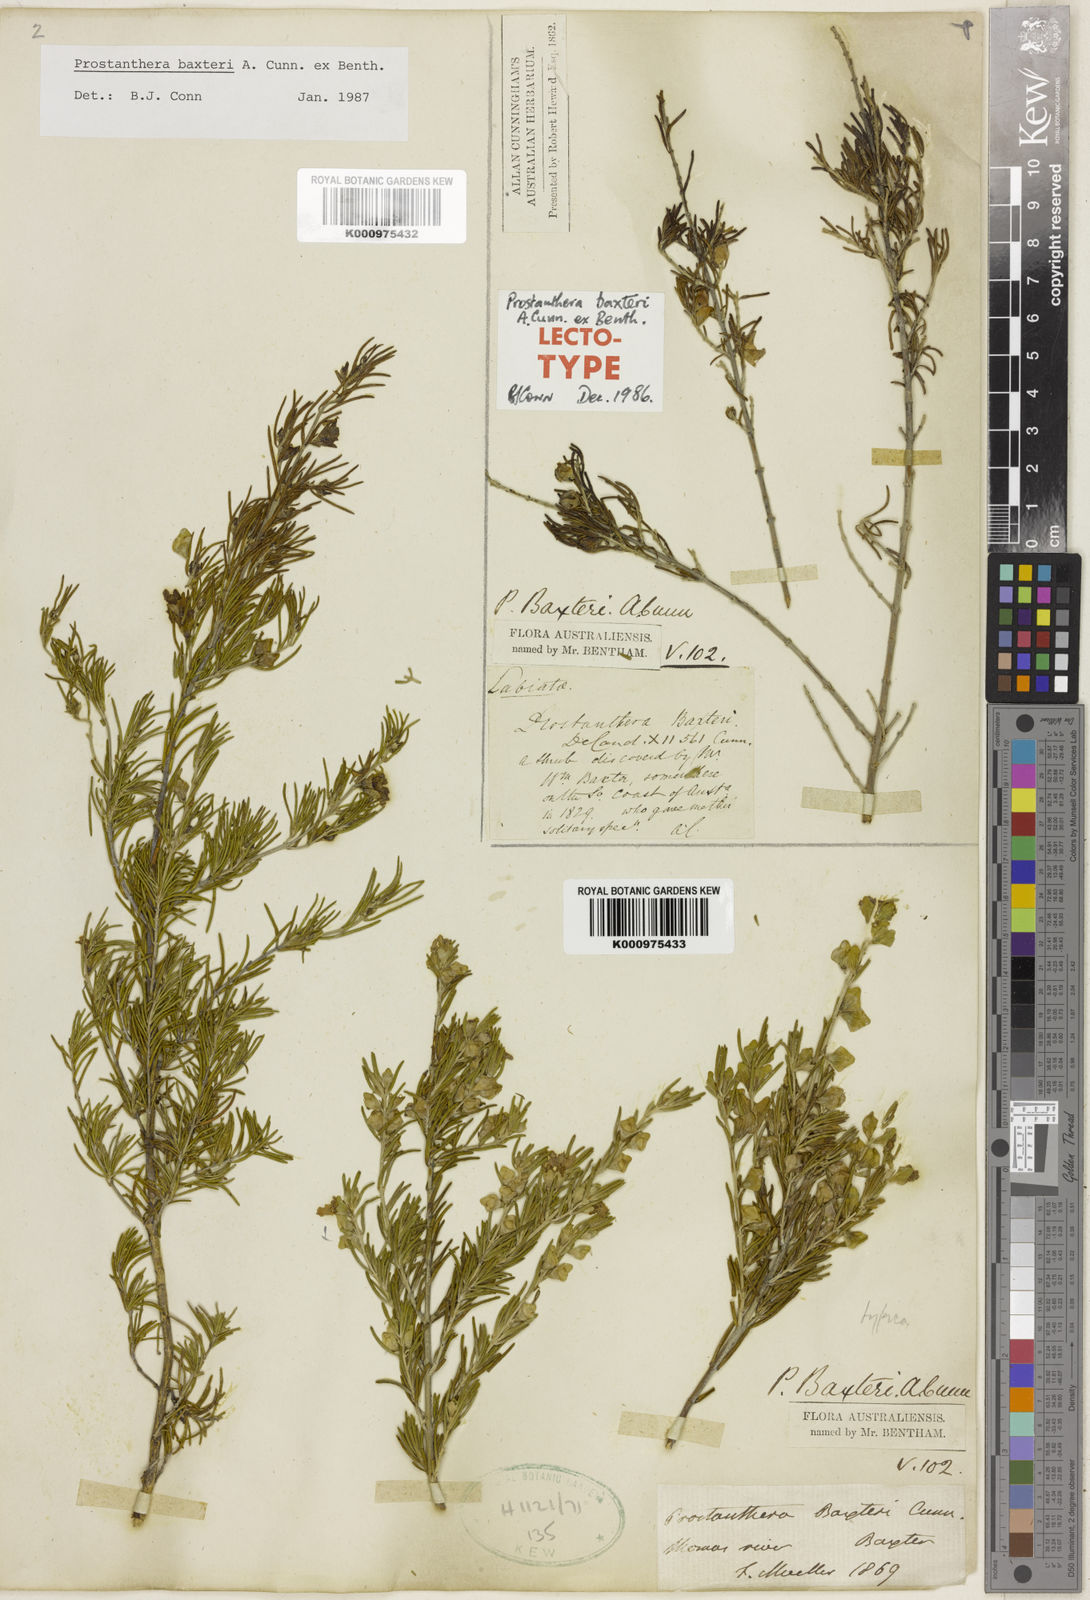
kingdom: Plantae
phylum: Tracheophyta
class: Magnoliopsida
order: Lamiales
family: Lamiaceae
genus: Prostanthera
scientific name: Prostanthera baxteri
